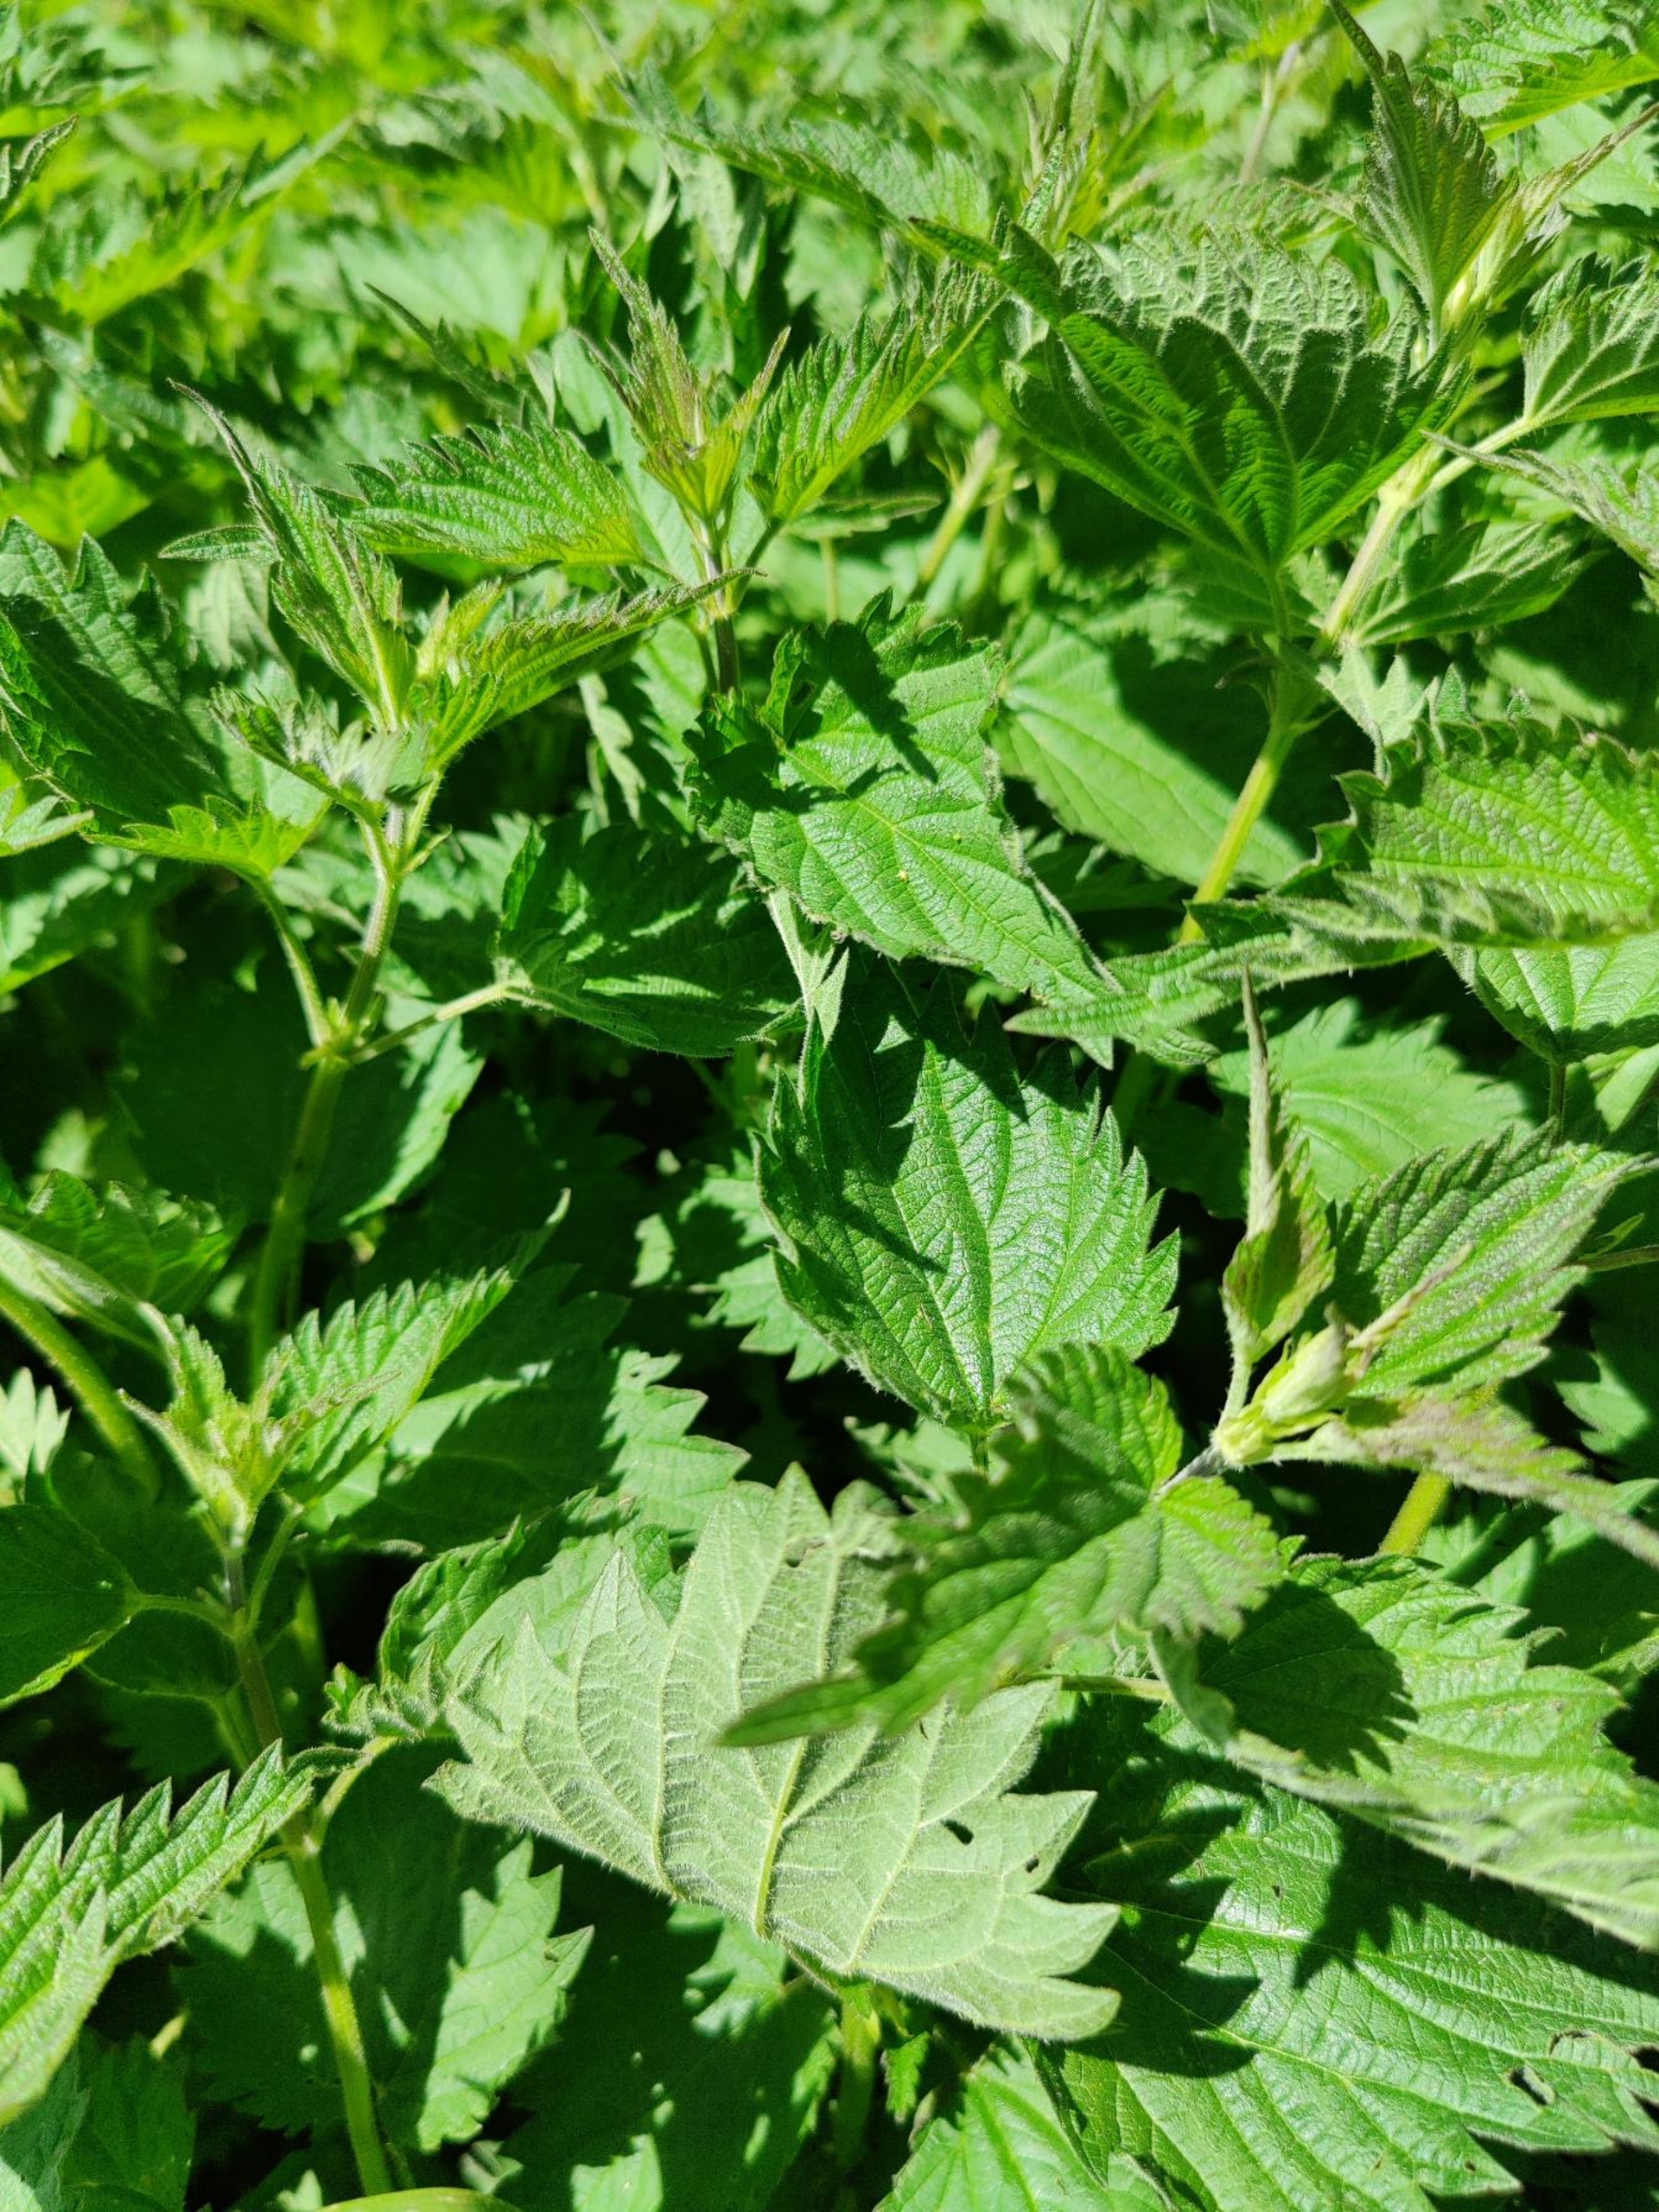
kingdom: Plantae
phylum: Tracheophyta
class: Magnoliopsida
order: Rosales
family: Urticaceae
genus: Urtica
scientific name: Urtica dioica
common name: Stor nælde
